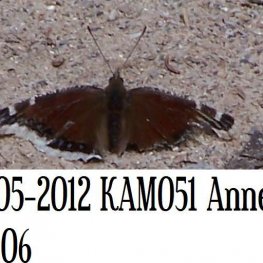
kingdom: Animalia
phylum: Arthropoda
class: Insecta
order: Lepidoptera
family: Nymphalidae
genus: Nymphalis
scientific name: Nymphalis antiopa
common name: Mourning Cloak
